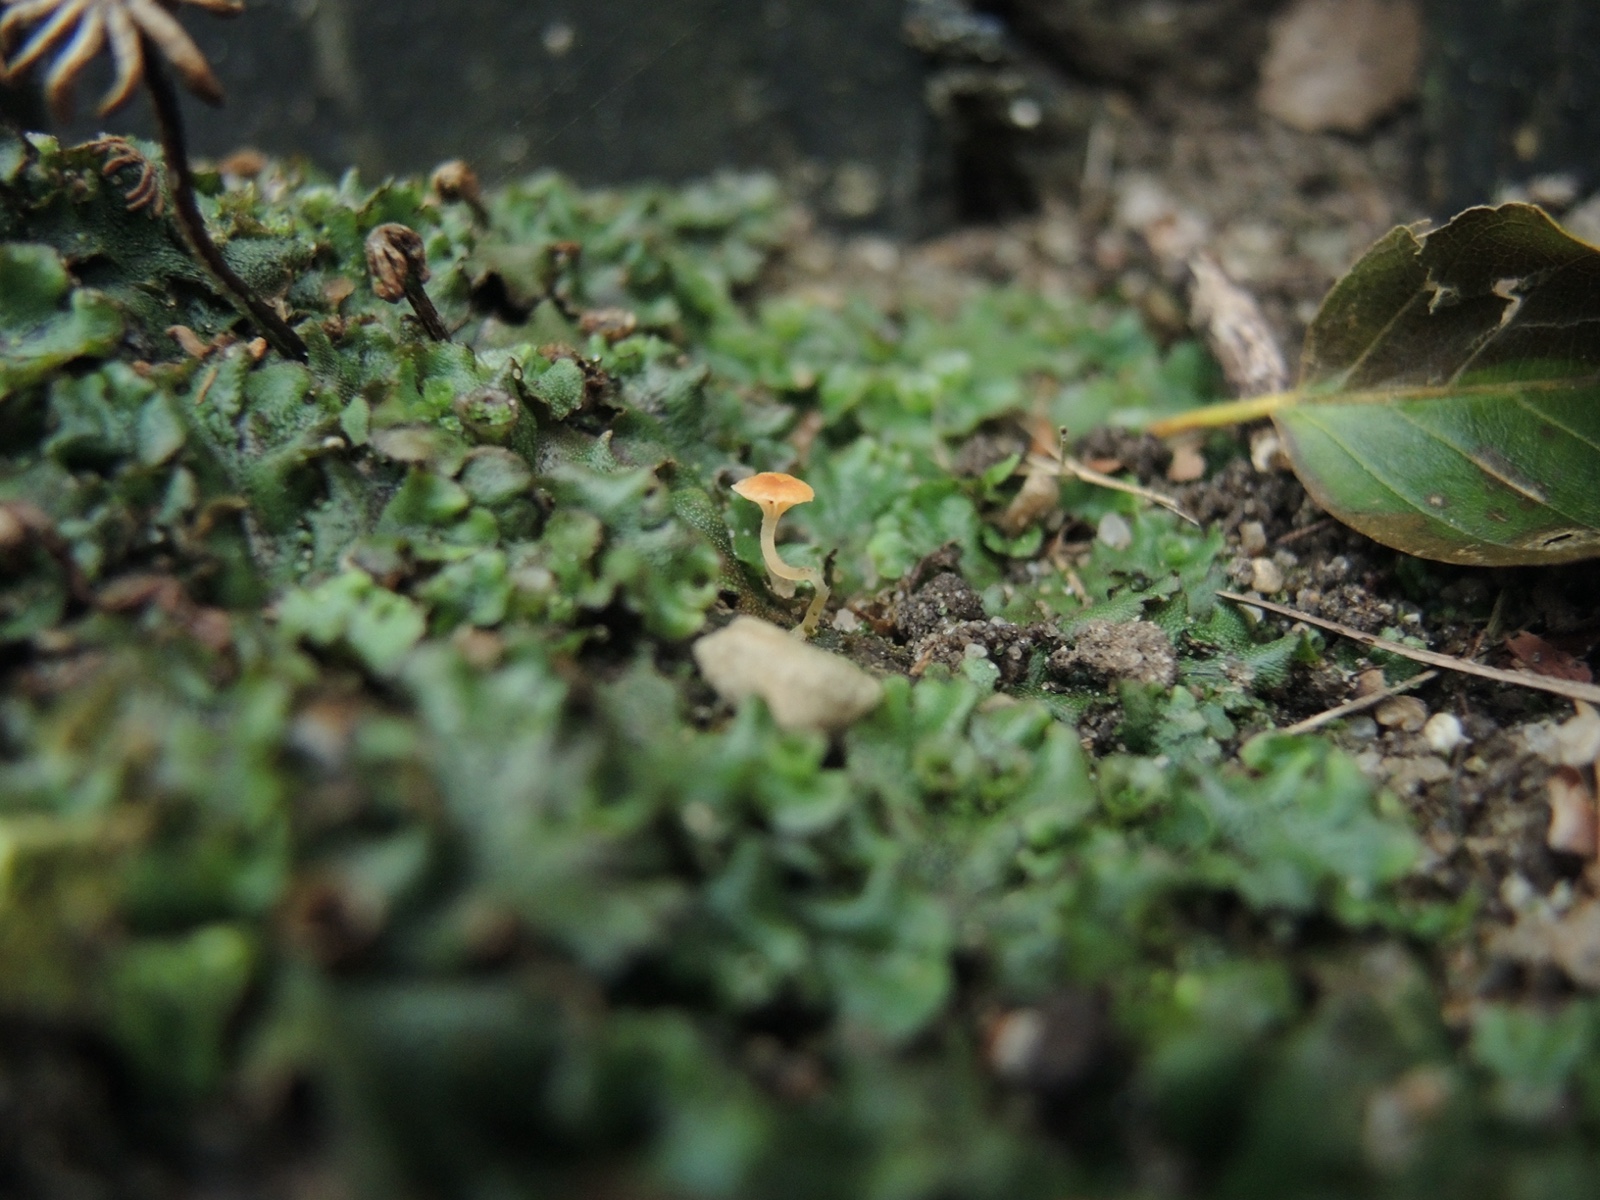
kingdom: Fungi
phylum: Basidiomycota
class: Agaricomycetes
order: Hymenochaetales
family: Rickenellaceae
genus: Loreleia
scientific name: Loreleia marchantiae
